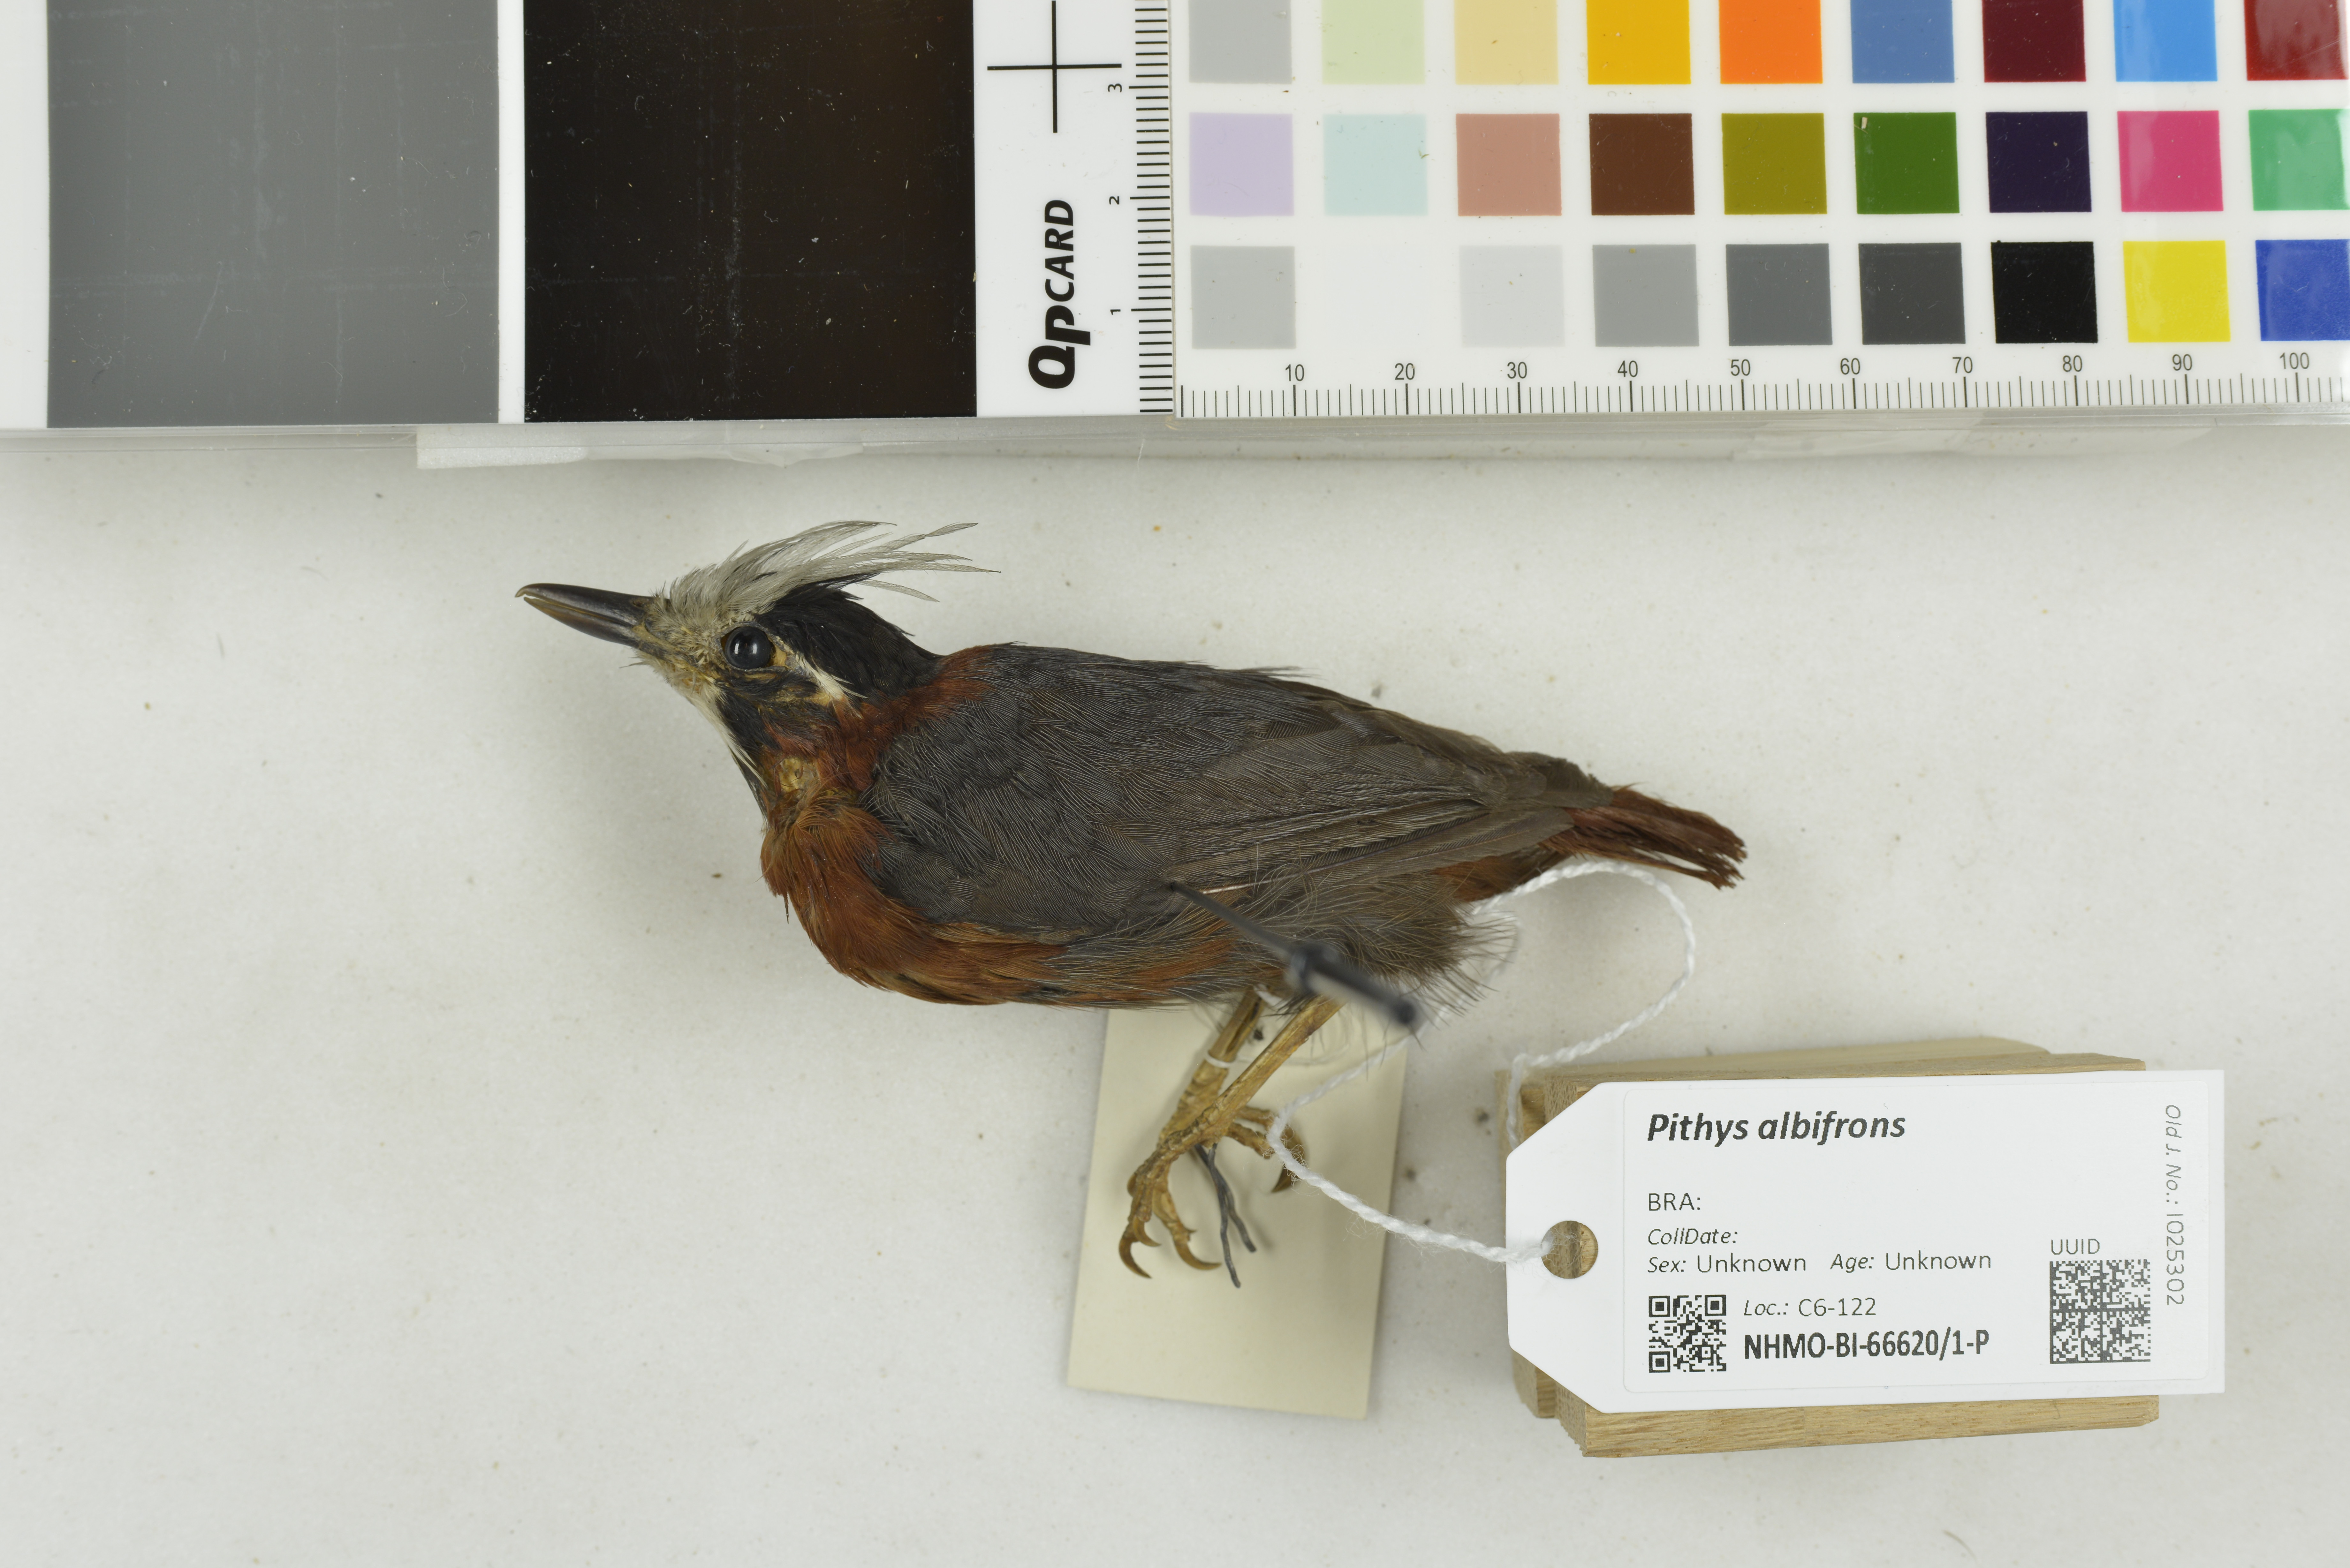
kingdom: Animalia
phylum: Chordata
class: Aves
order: Passeriformes
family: Thamnophilidae
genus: Pithys
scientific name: Pithys albifrons
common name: White-plumed antbird
